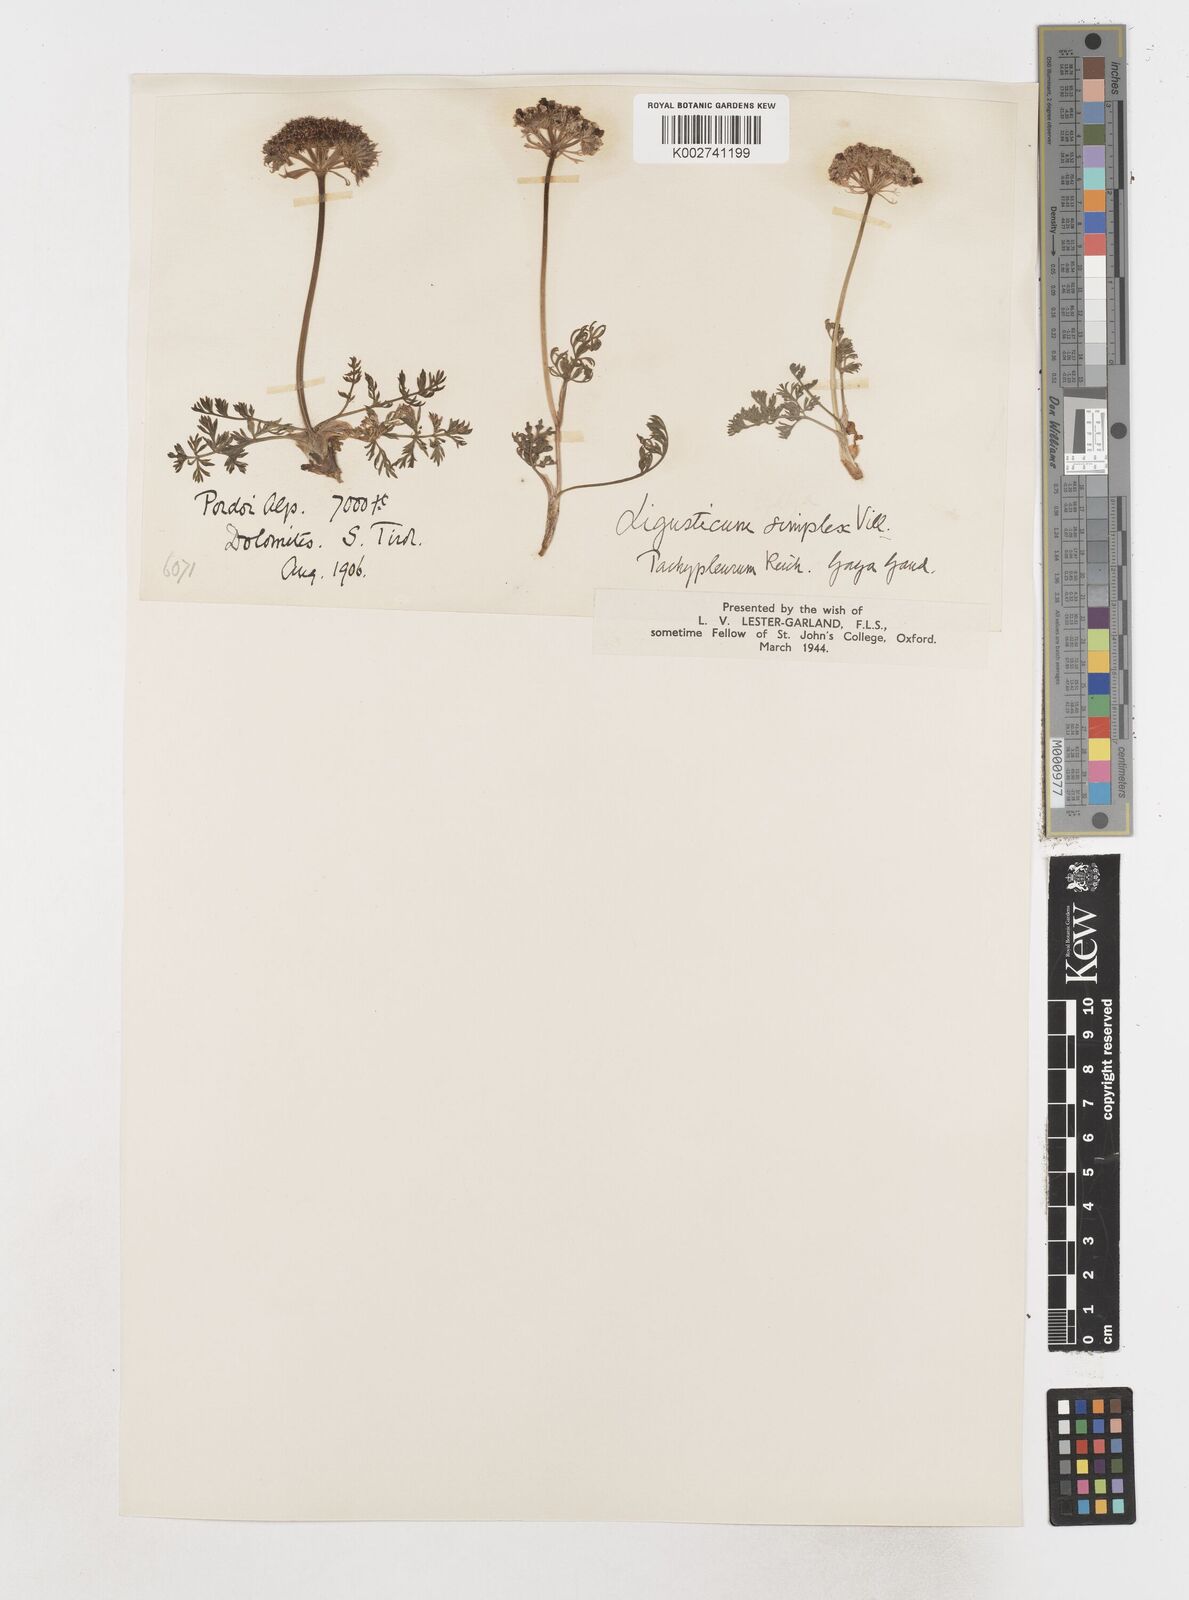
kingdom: Plantae
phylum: Tracheophyta
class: Magnoliopsida
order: Apiales
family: Apiaceae
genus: Pachypleurum
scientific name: Pachypleurum mutellinoides
